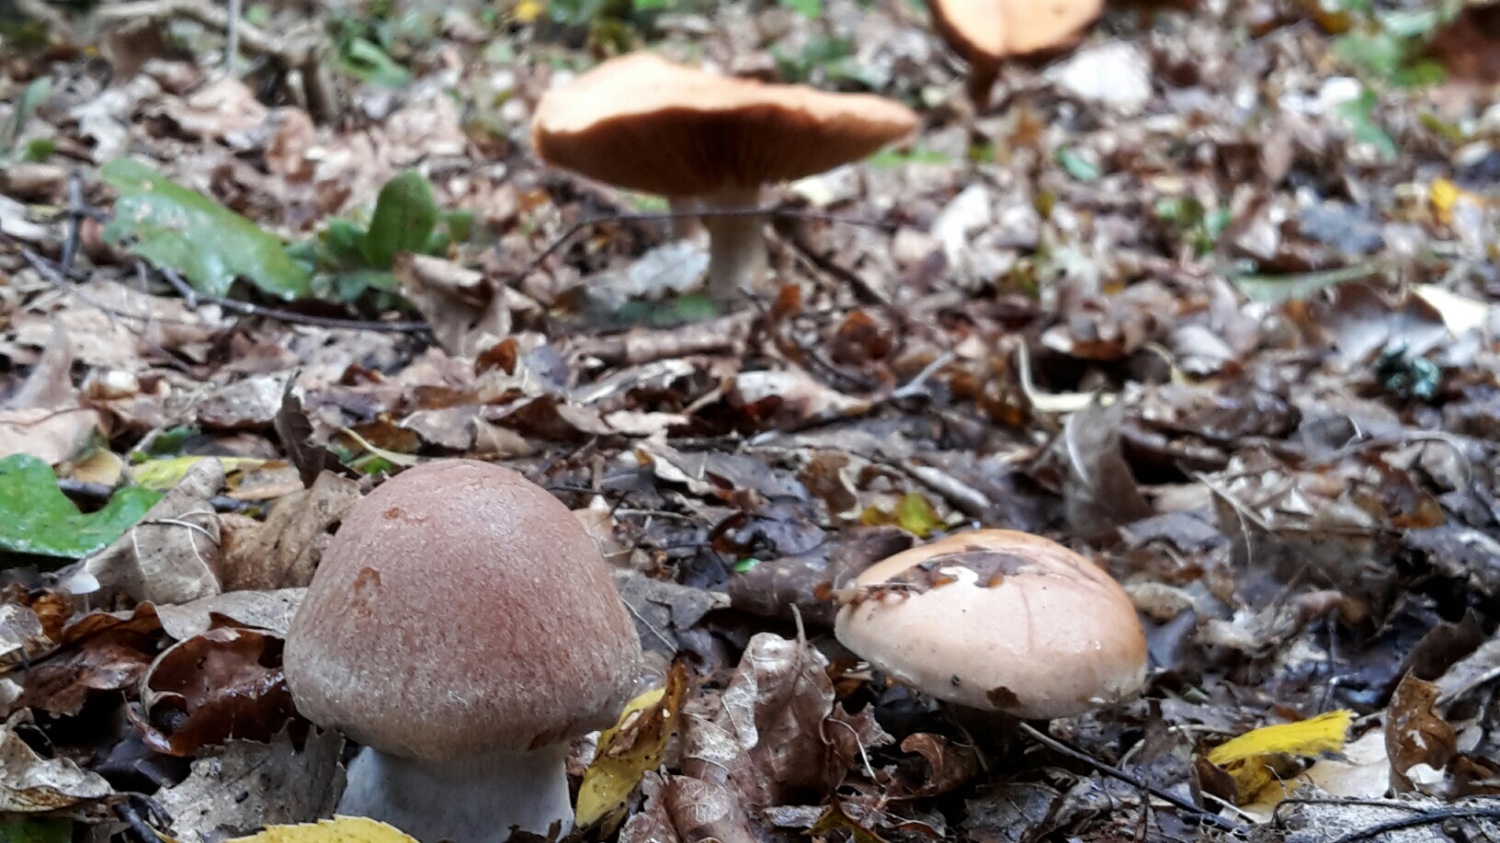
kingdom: Fungi
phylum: Basidiomycota
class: Agaricomycetes
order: Agaricales
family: Cortinariaceae
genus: Cortinarius
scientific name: Cortinarius
